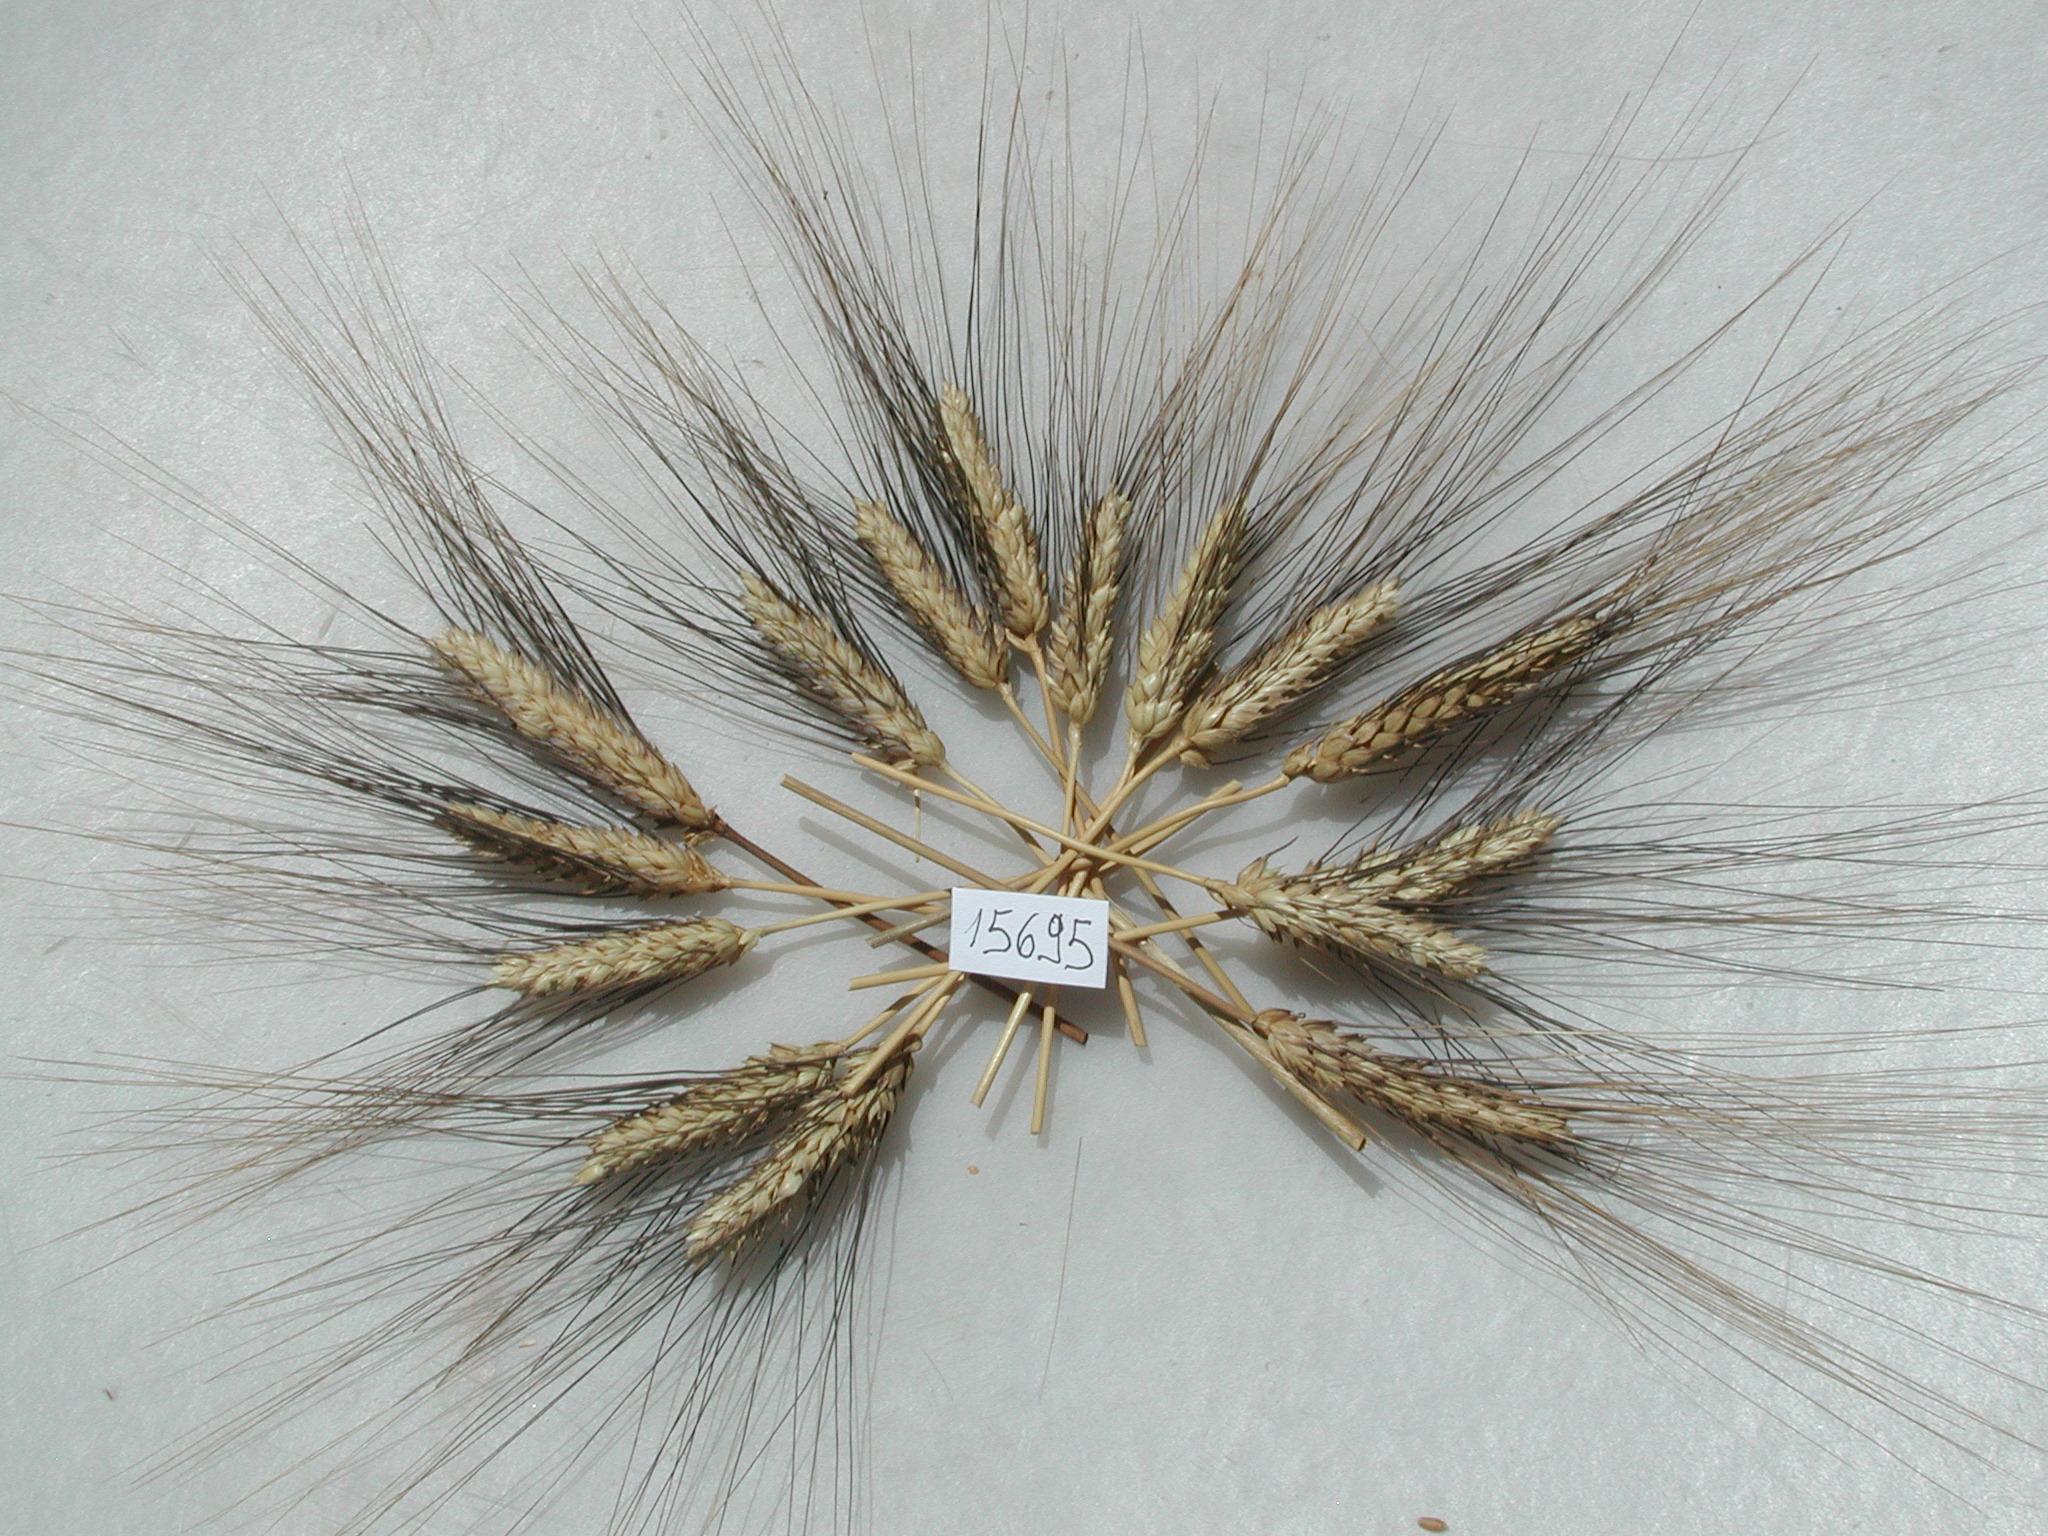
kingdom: Plantae
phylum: Tracheophyta
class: Liliopsida
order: Poales
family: Poaceae
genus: Triticum
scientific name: Triticum
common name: Wheat
